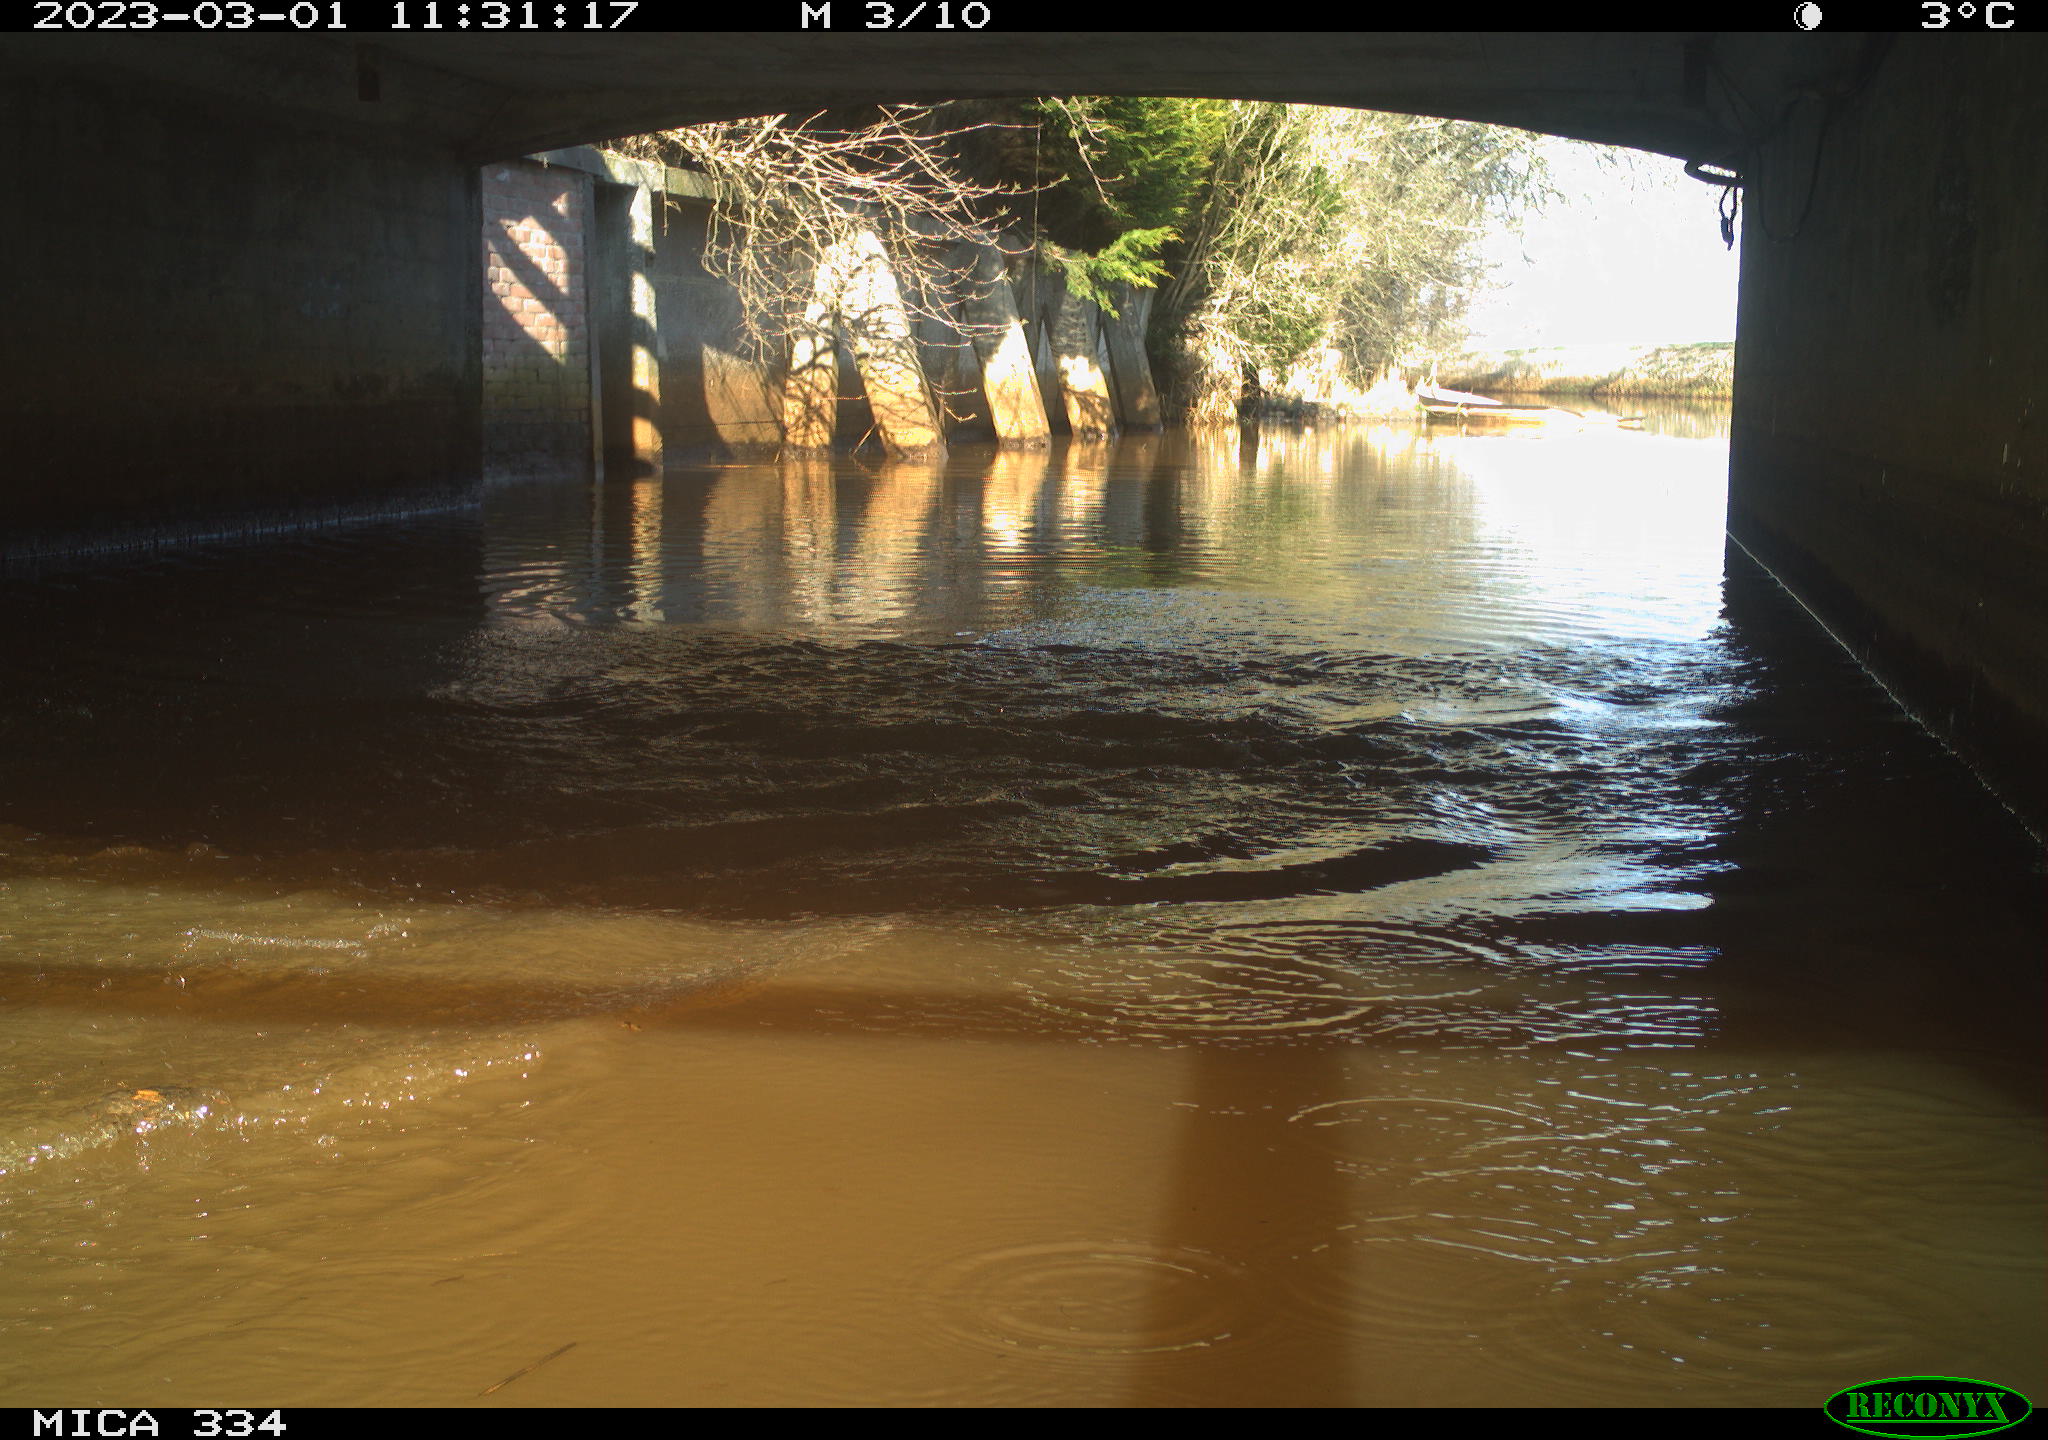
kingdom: Animalia
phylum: Chordata
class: Aves
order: Anseriformes
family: Anatidae
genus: Anas
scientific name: Anas
